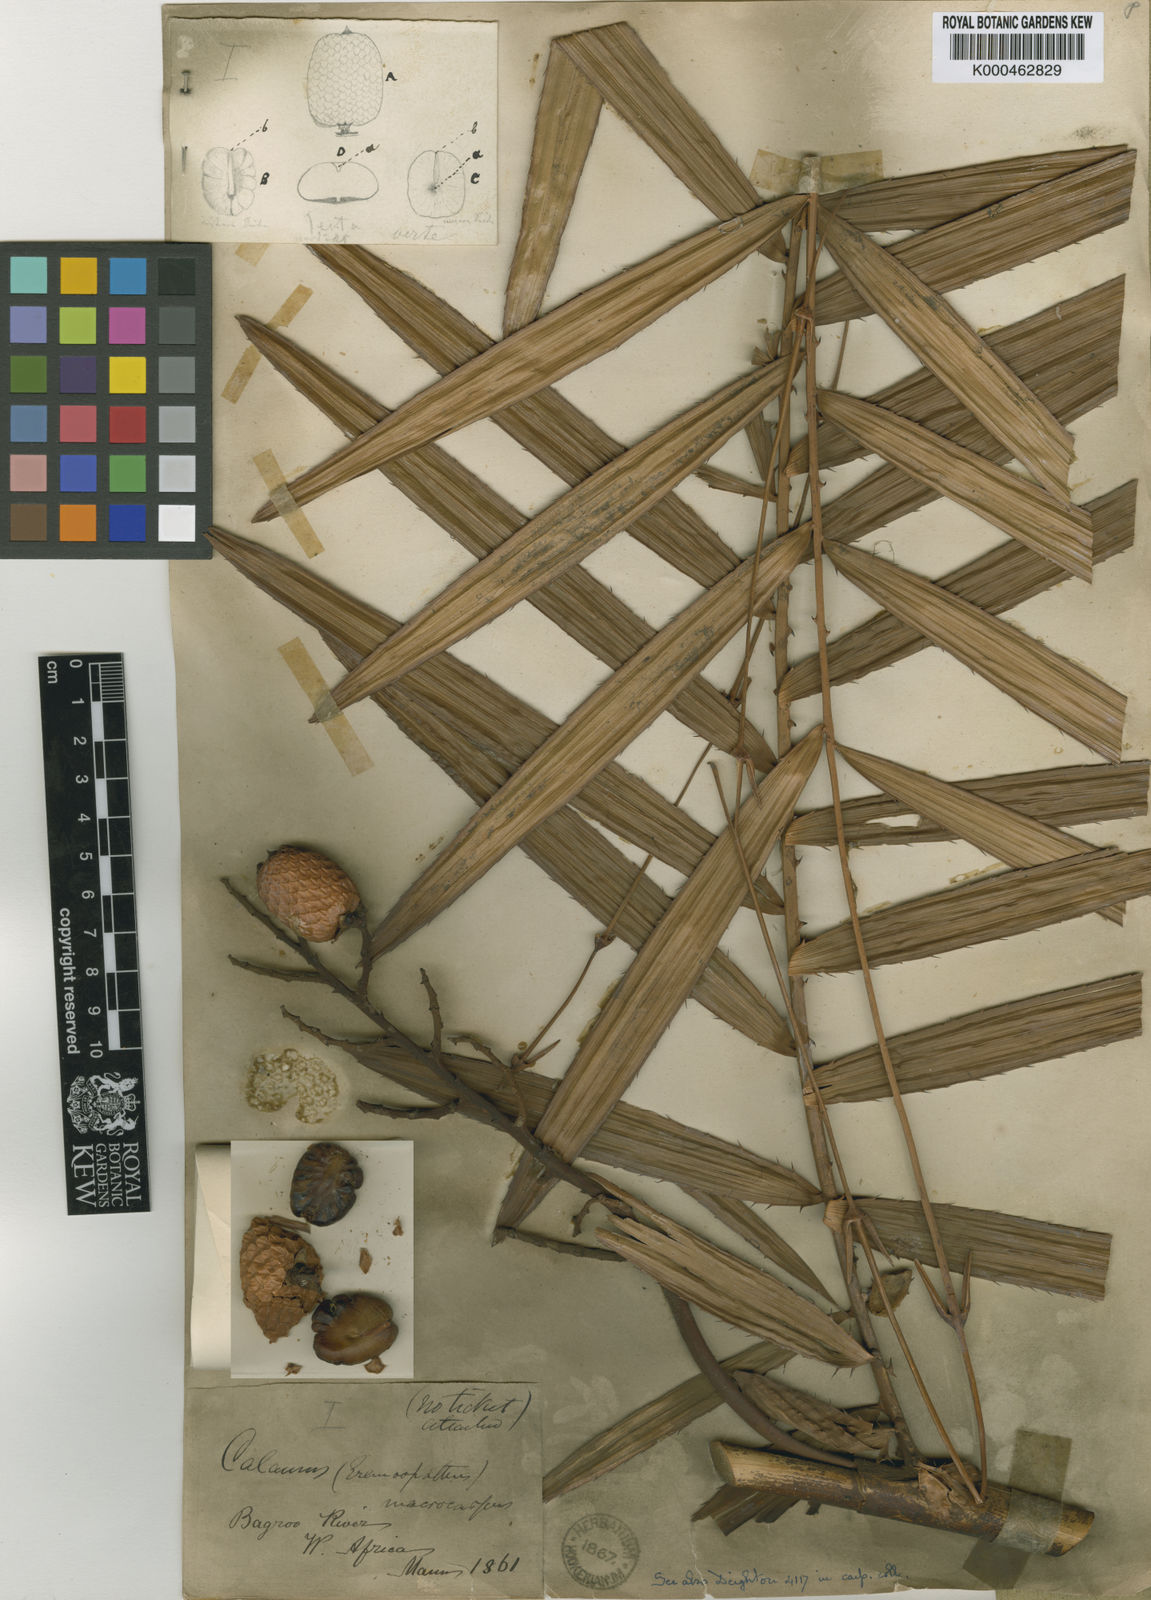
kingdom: Plantae
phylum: Tracheophyta
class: Liliopsida
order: Arecales
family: Arecaceae
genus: Eremospatha
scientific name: Eremospatha
